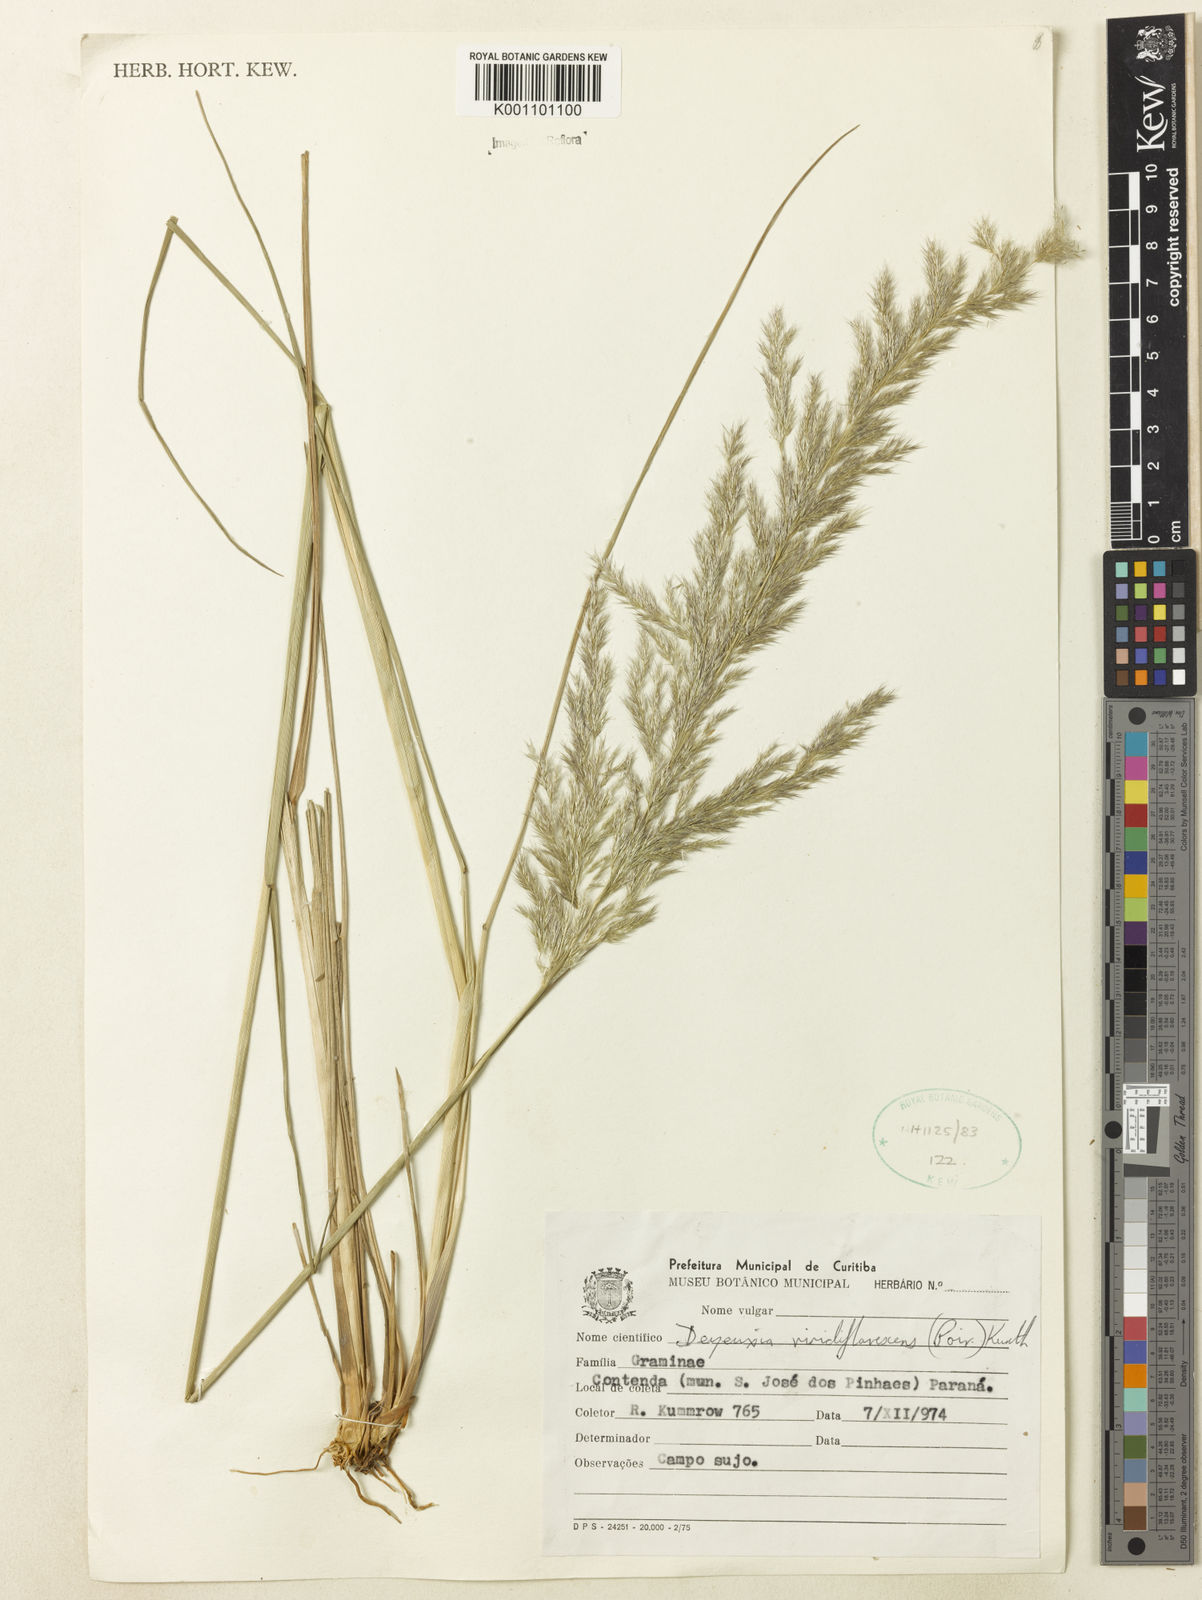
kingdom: Plantae
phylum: Tracheophyta
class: Liliopsida
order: Poales
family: Poaceae
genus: Cinnagrostis
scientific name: Cinnagrostis viridiflavescens
